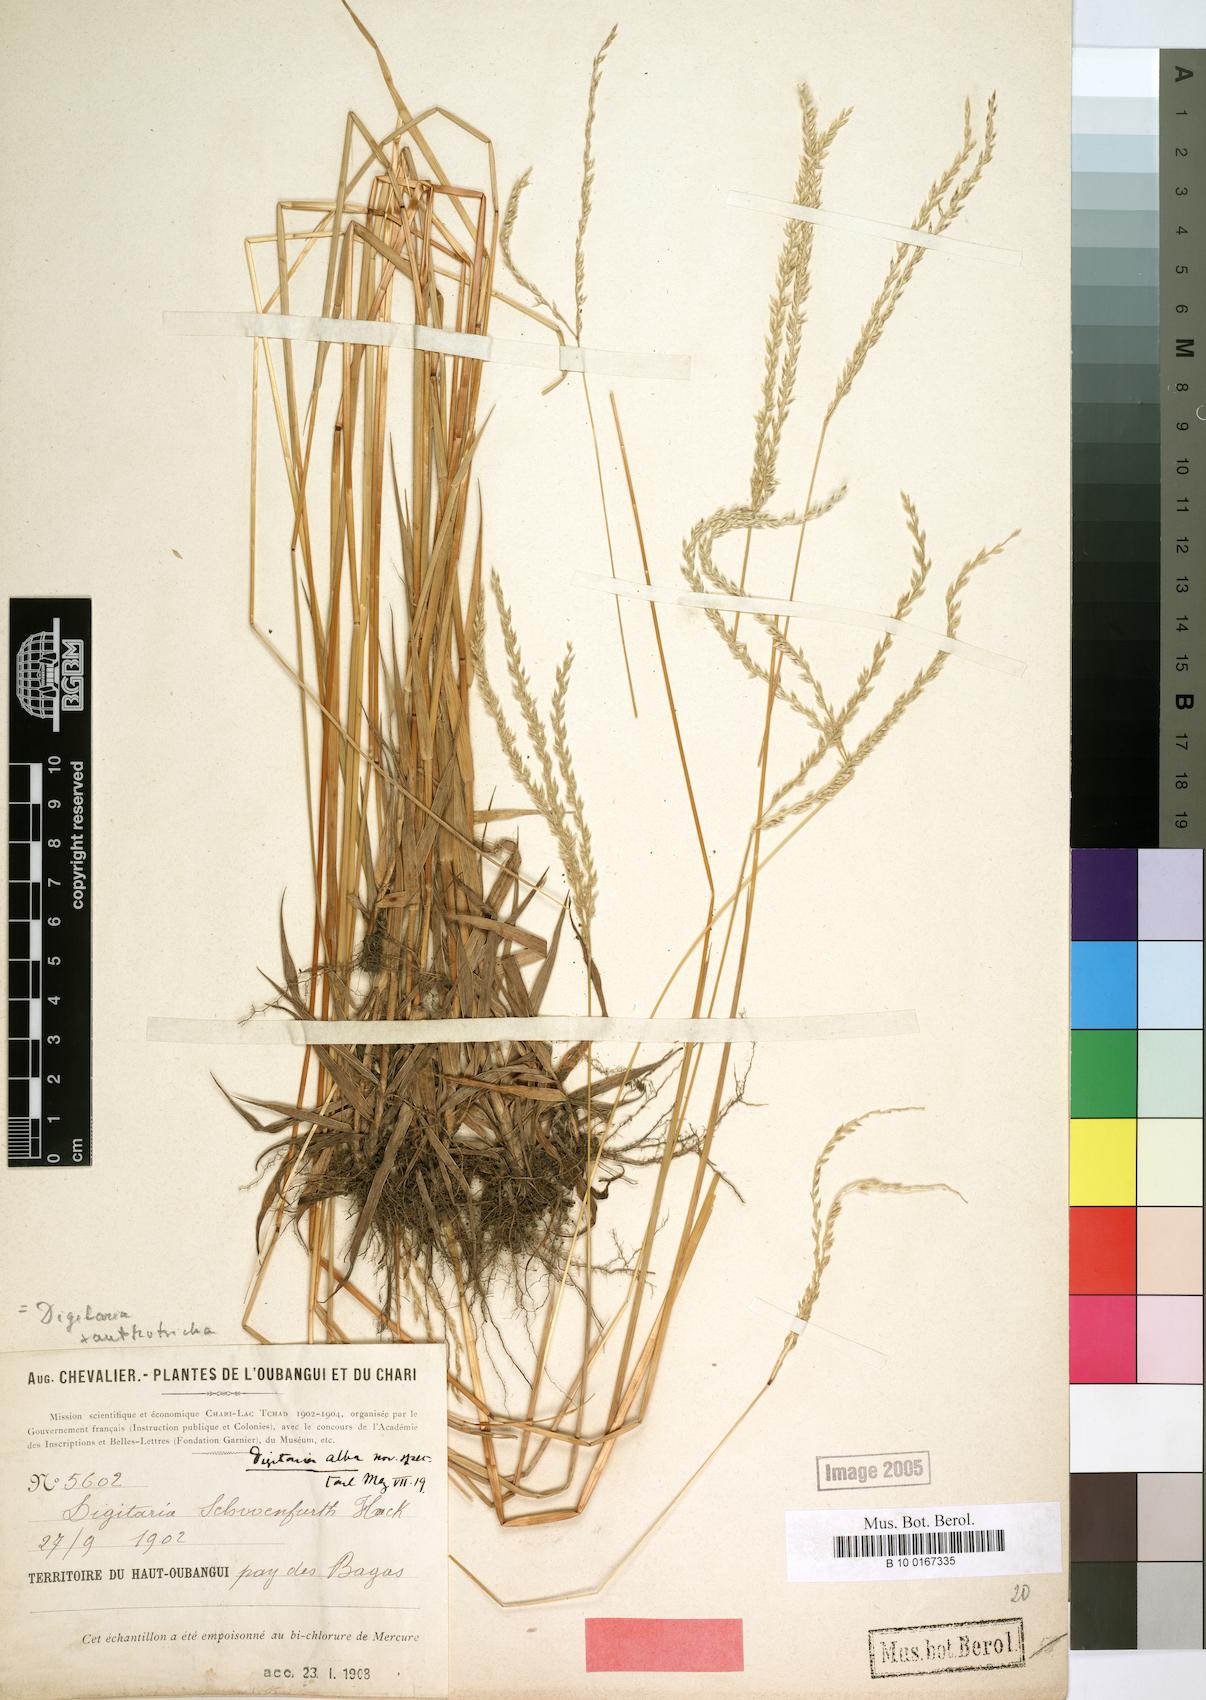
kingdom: Plantae
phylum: Tracheophyta
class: Liliopsida
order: Poales
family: Poaceae
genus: Digitaria
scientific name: Digitaria xanthotricha
